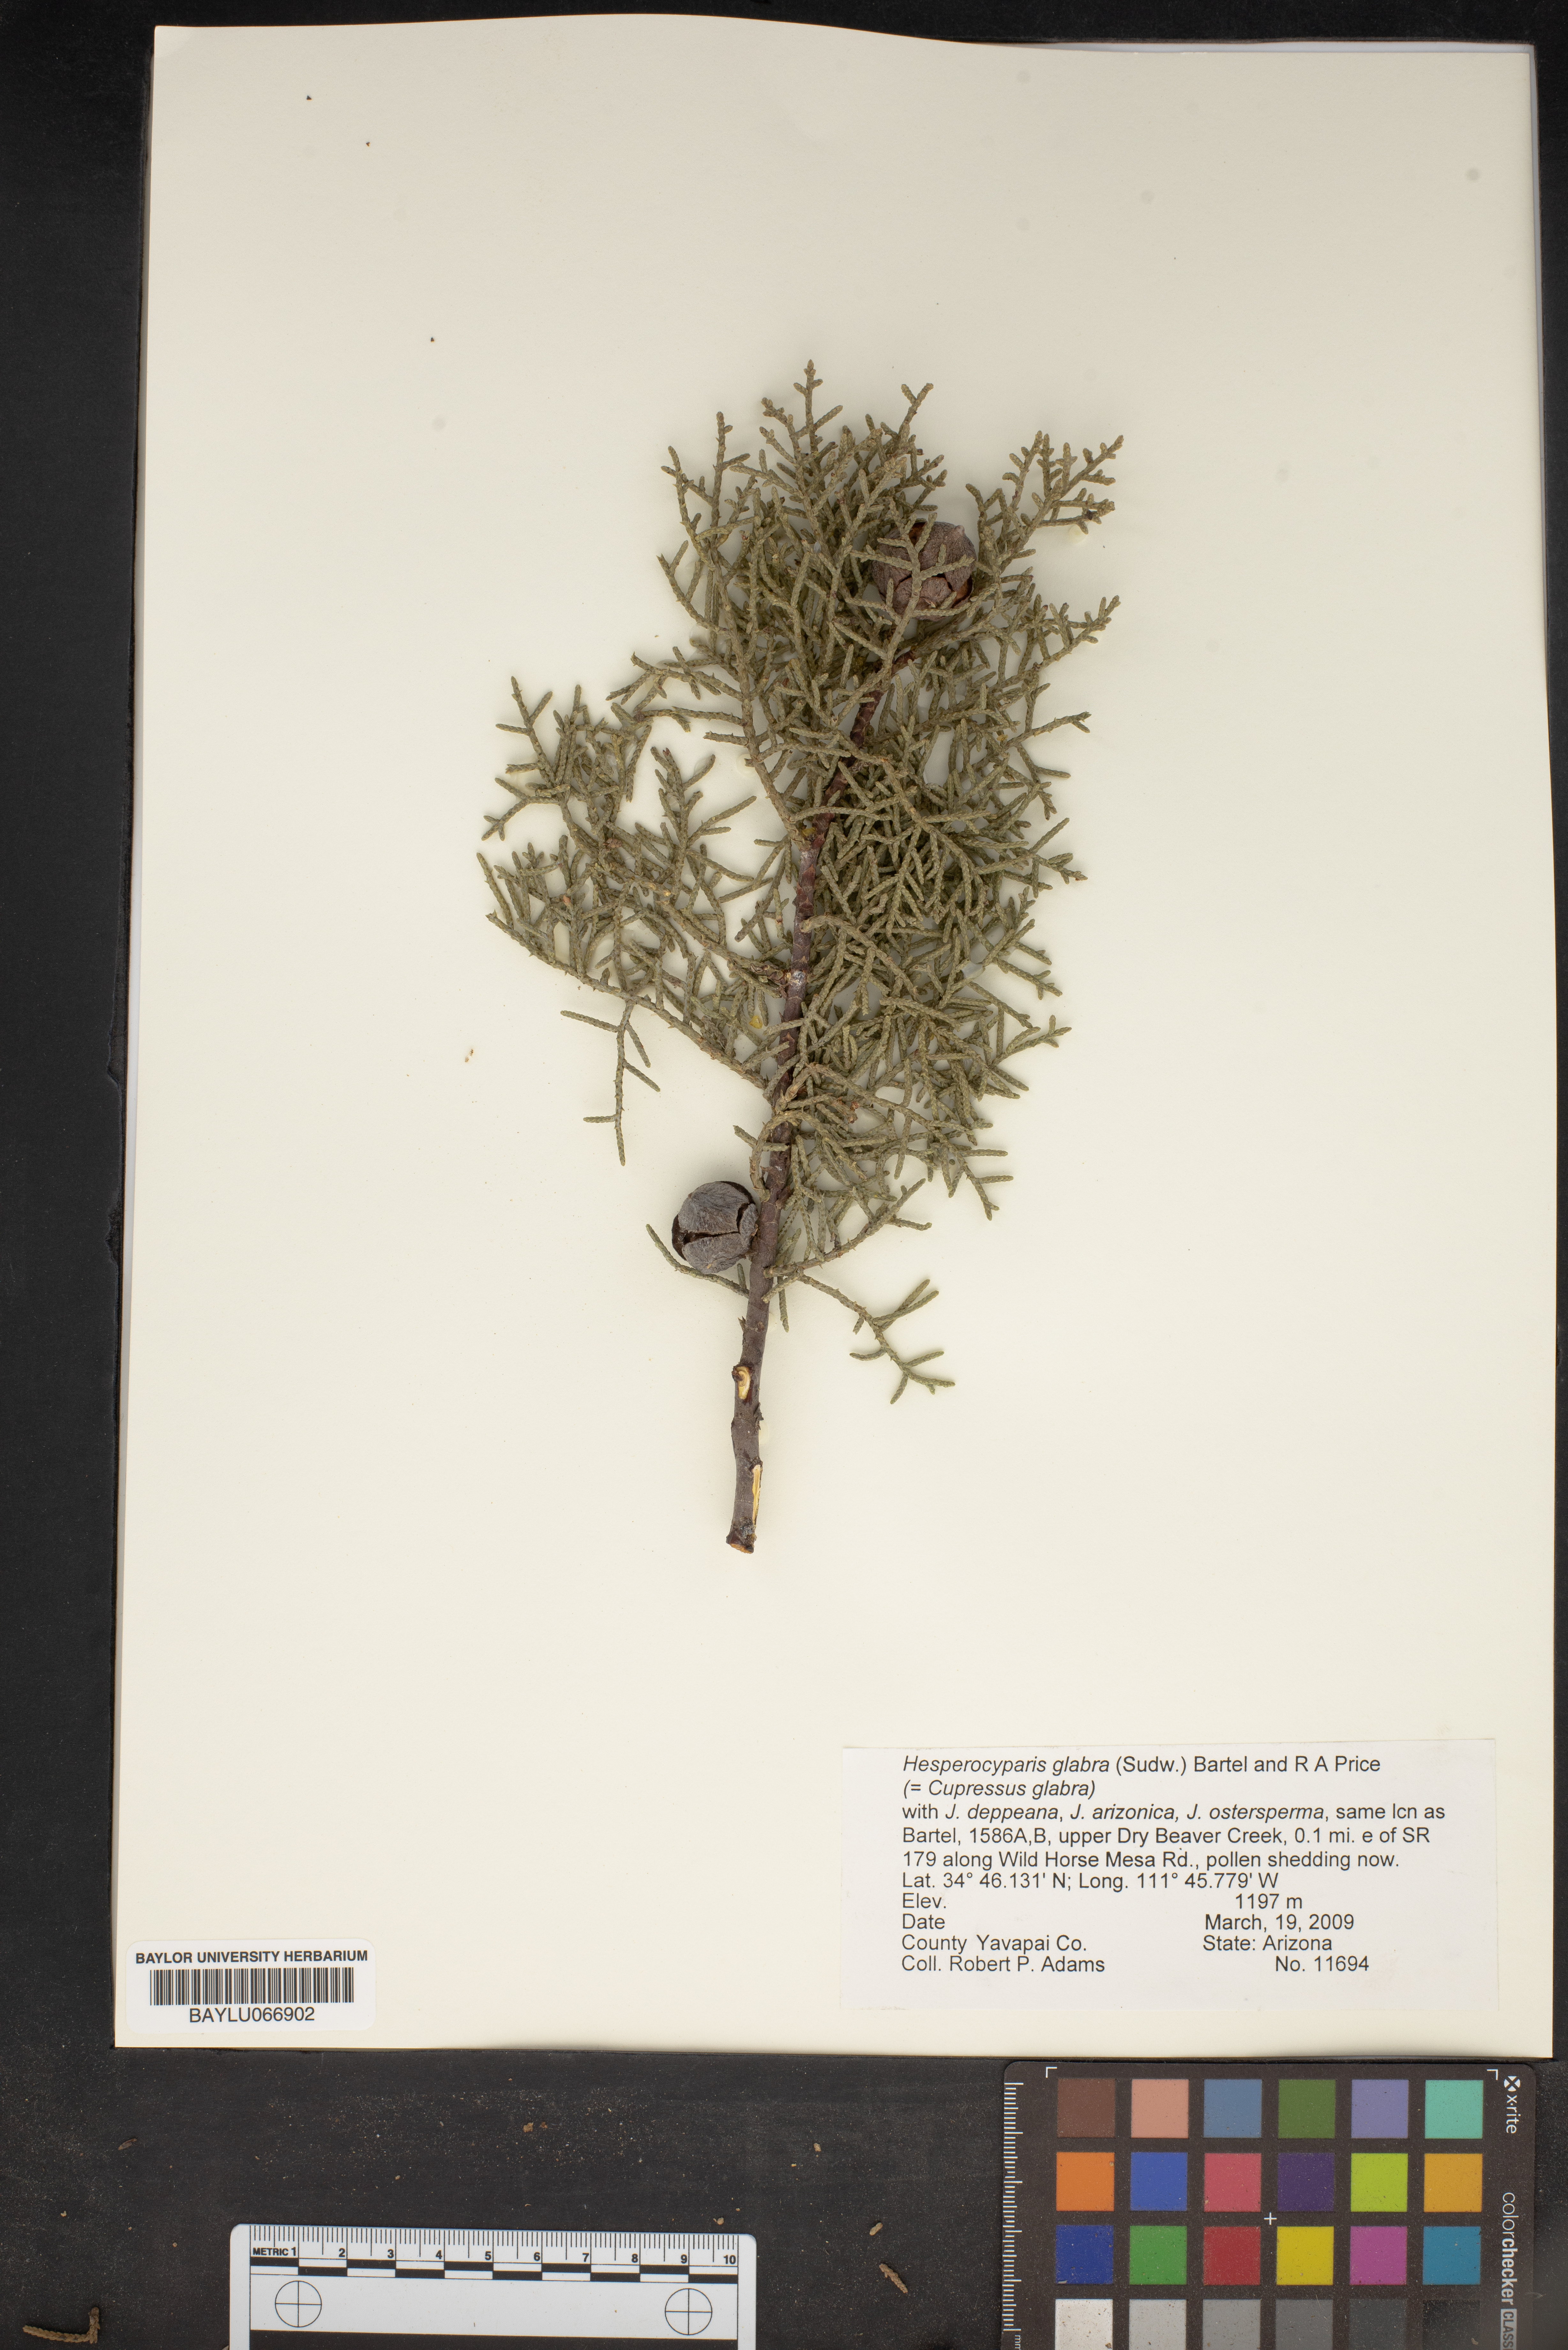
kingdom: Plantae
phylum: Tracheophyta
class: Pinopsida
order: Pinales
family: Cupressaceae
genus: Cupressus
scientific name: Cupressus arizonica
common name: Arizona cypress
